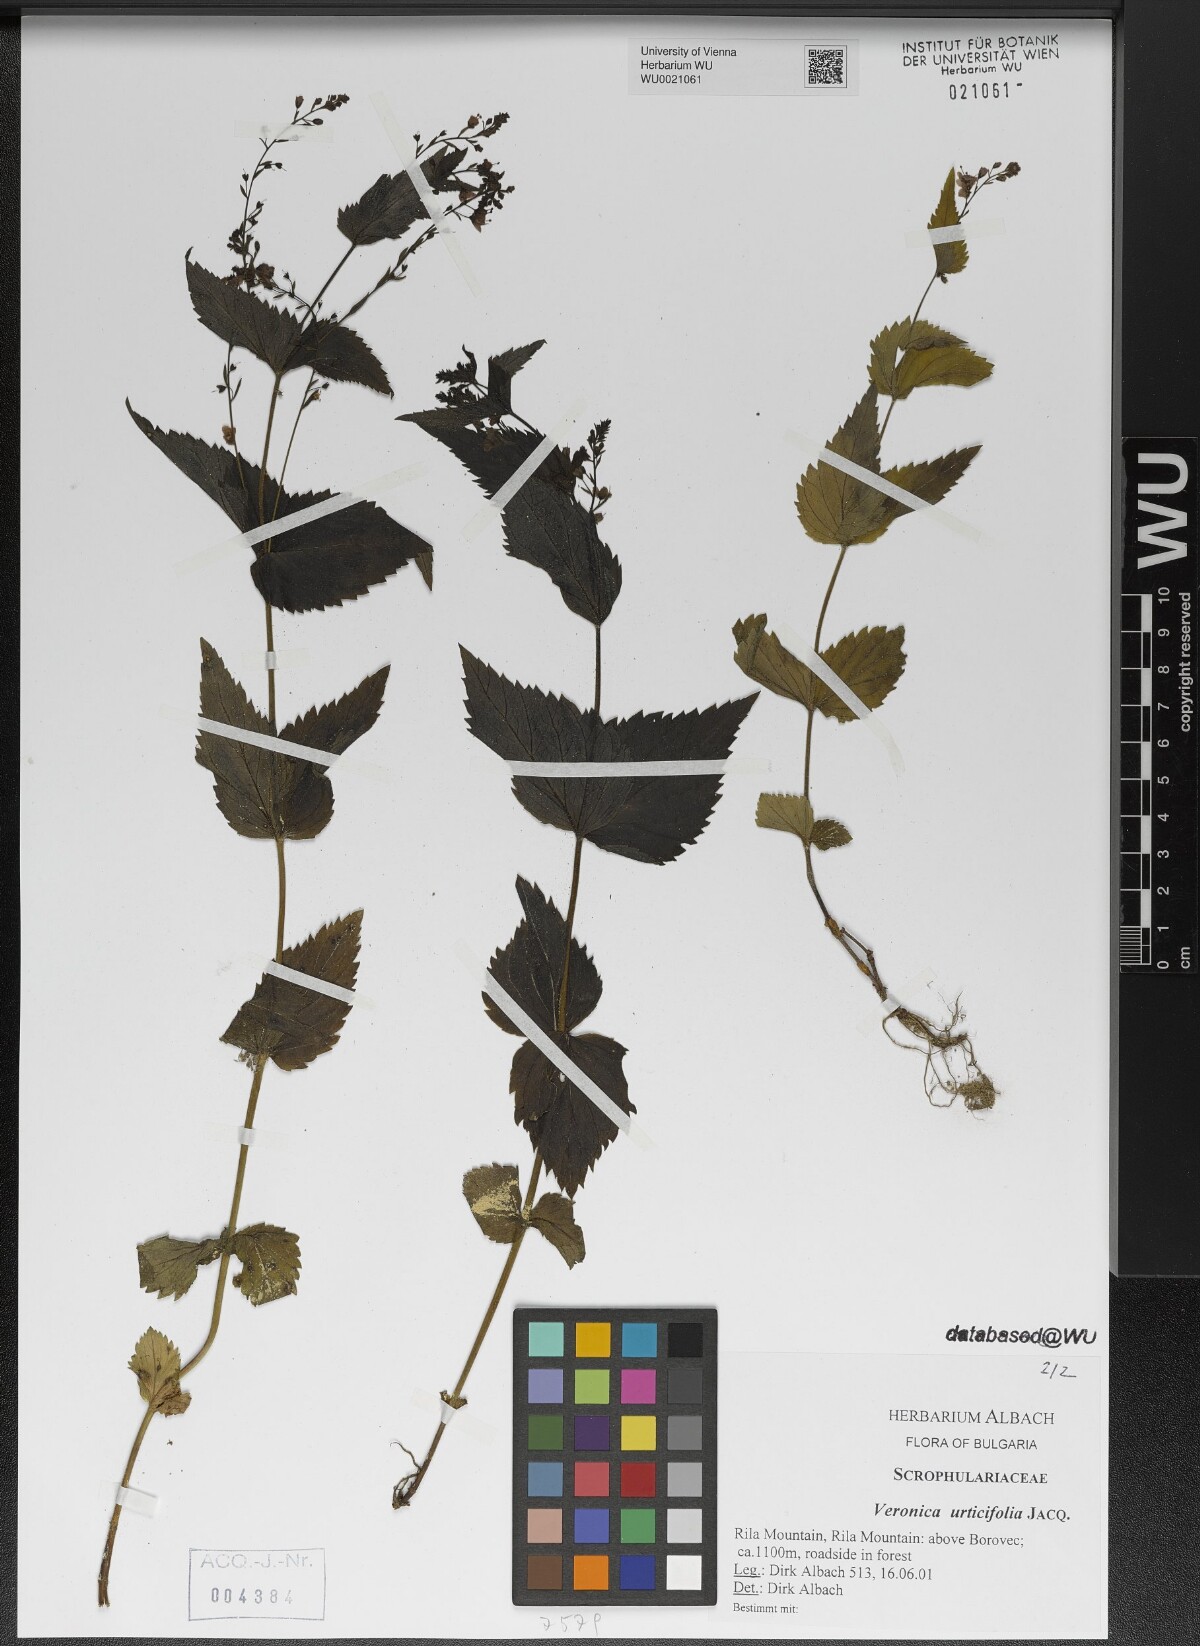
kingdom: Plantae
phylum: Tracheophyta
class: Magnoliopsida
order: Lamiales
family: Plantaginaceae
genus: Veronica
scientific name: Veronica urticifolia
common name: Nettle-leaf speedwell
